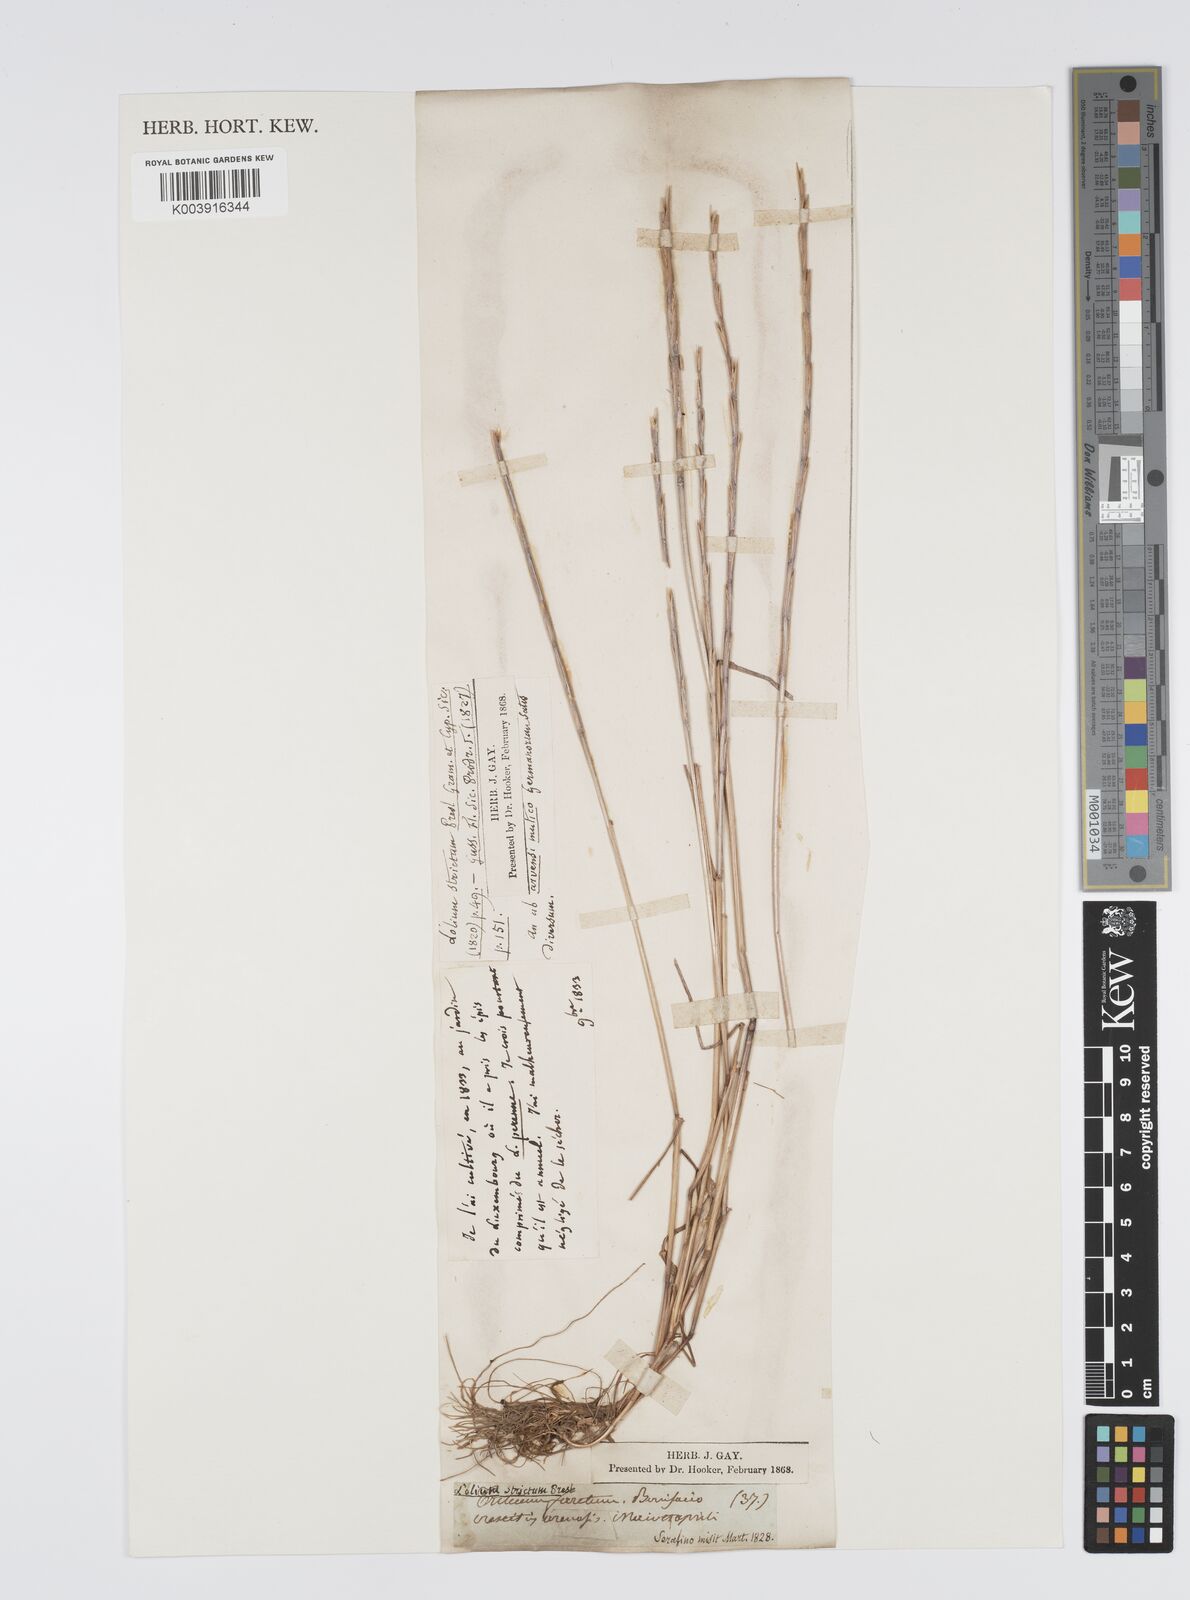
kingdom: Plantae
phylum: Tracheophyta
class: Liliopsida
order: Poales
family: Poaceae
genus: Lolium
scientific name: Lolium rigidum
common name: Wimmera ryegrass
